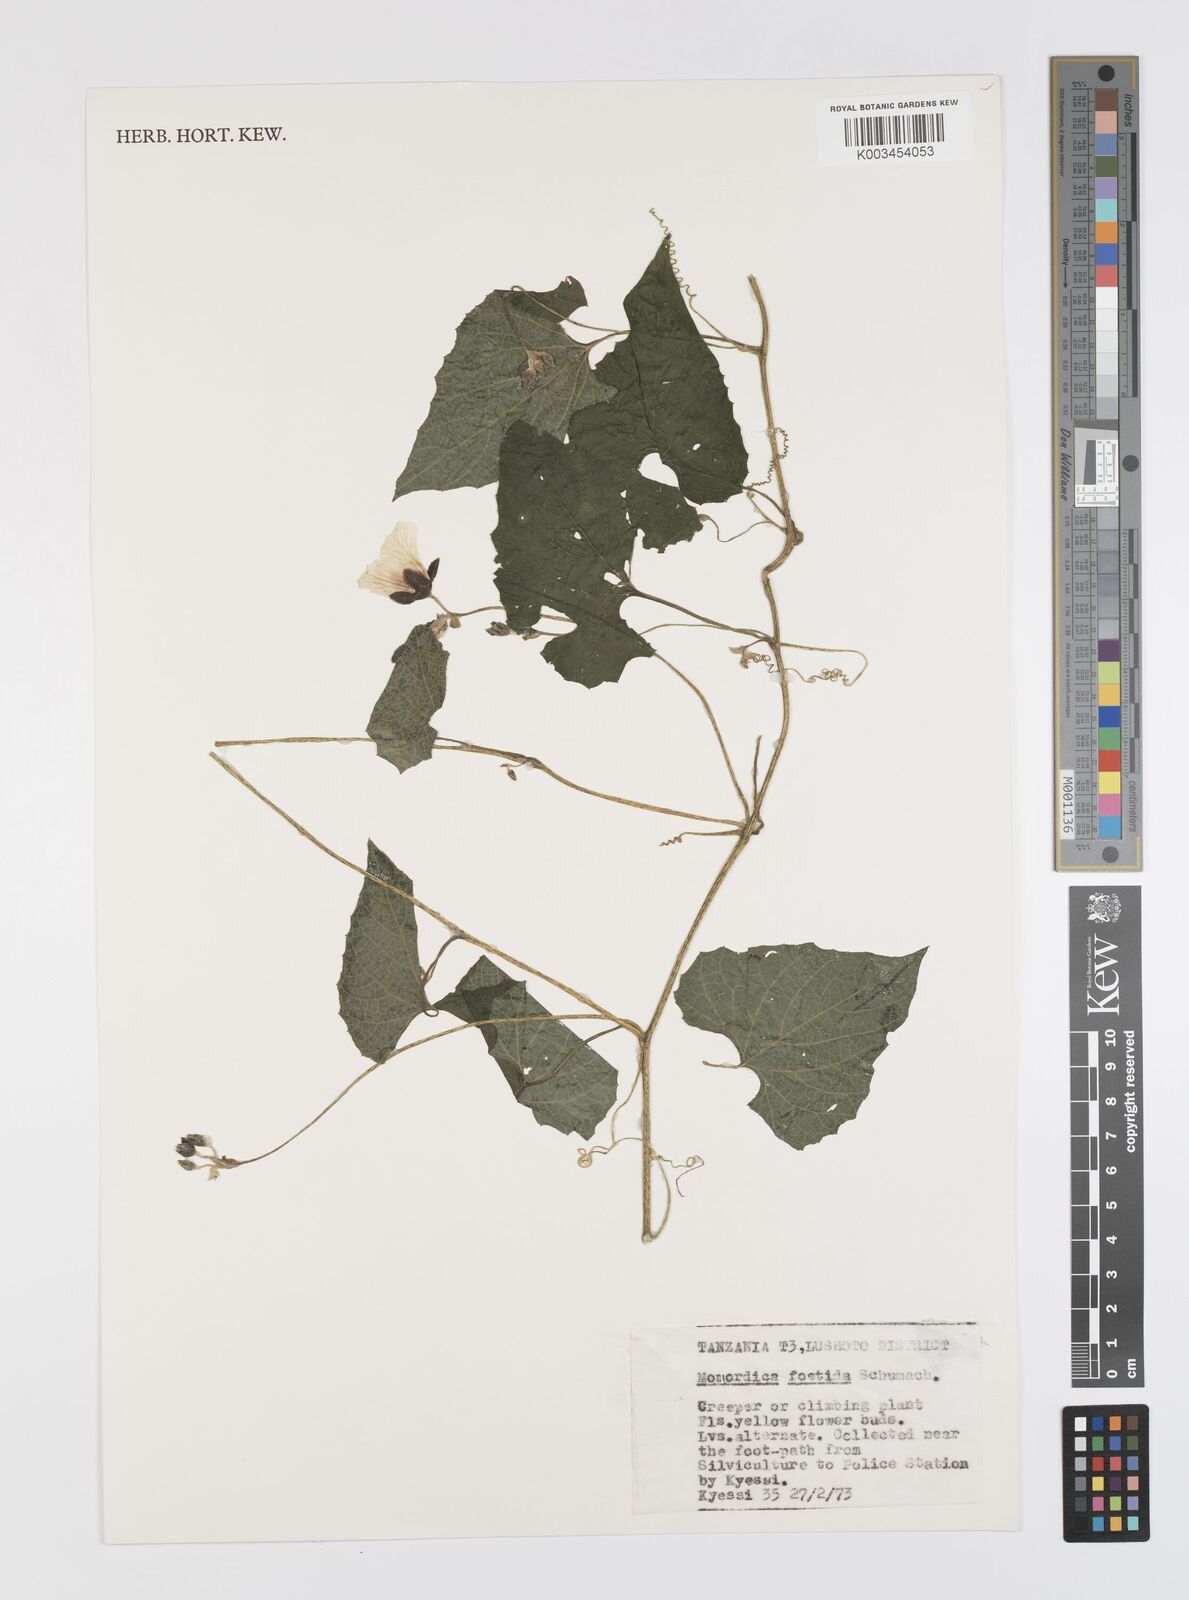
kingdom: Plantae
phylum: Tracheophyta
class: Magnoliopsida
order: Cucurbitales
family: Cucurbitaceae
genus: Momordica
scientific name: Momordica foetida
